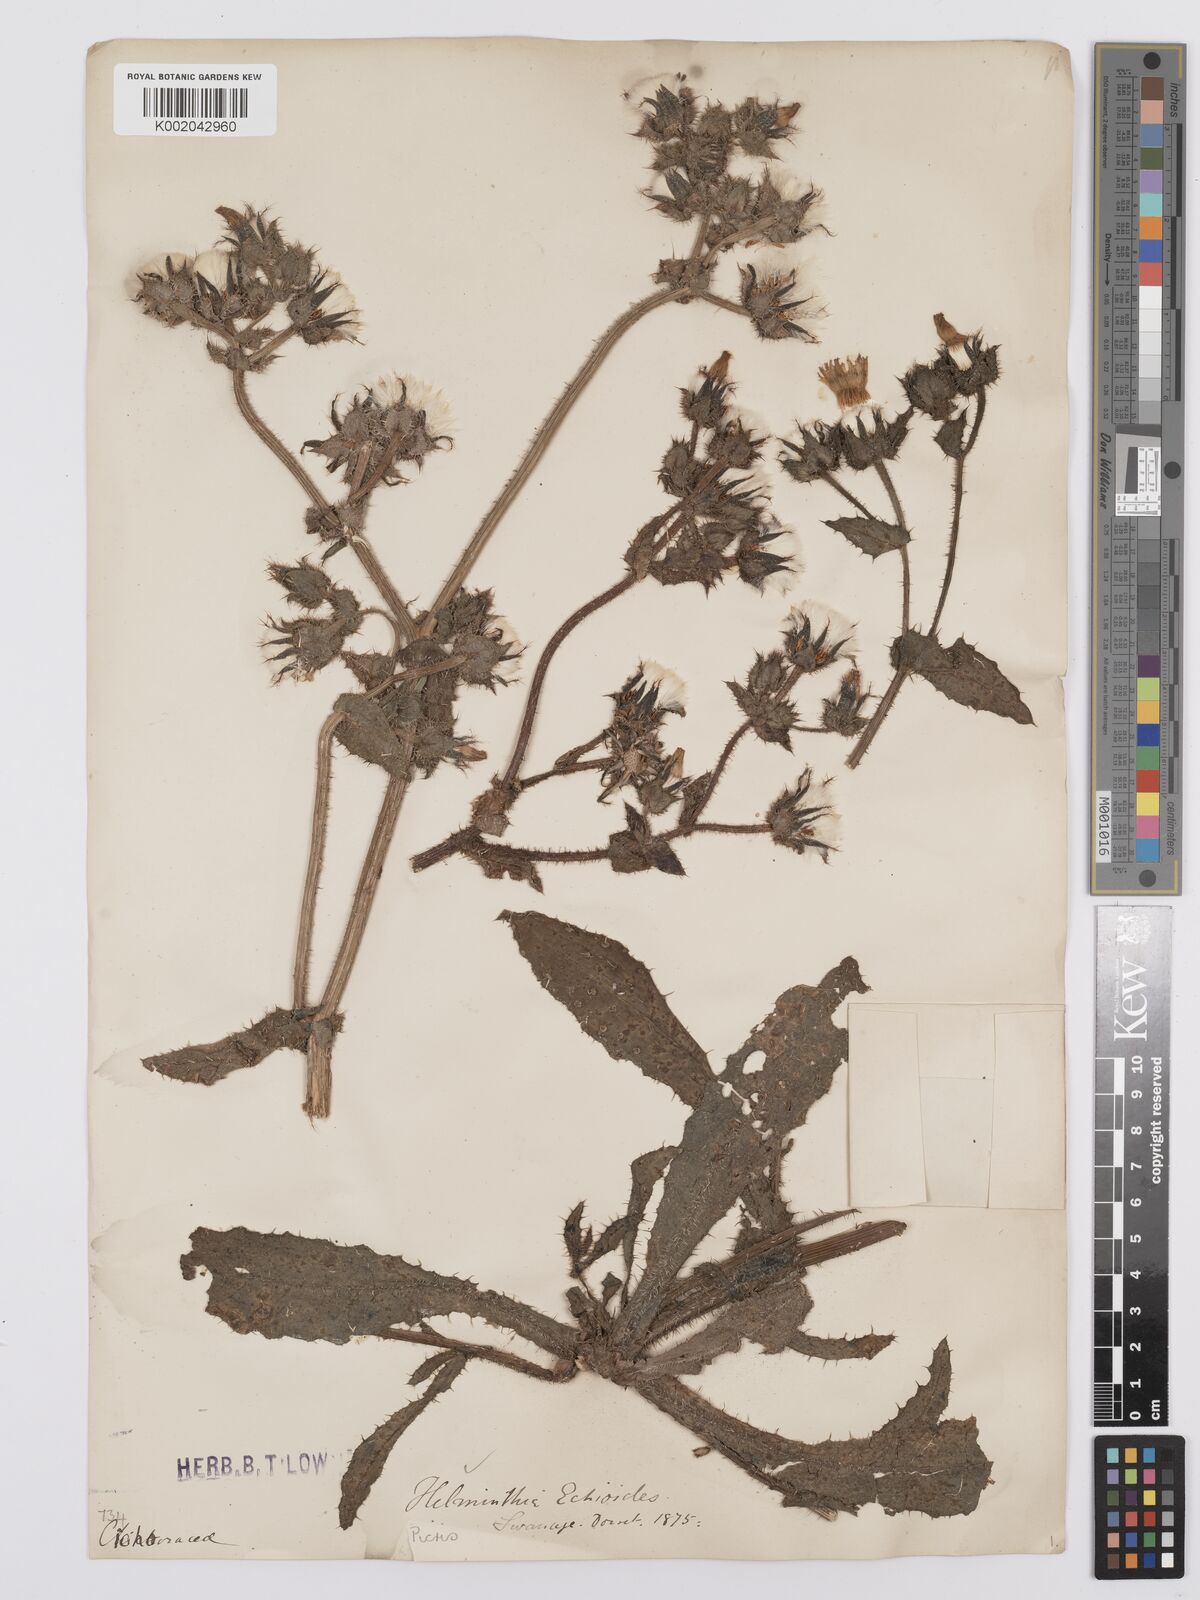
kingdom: Plantae
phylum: Tracheophyta
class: Magnoliopsida
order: Asterales
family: Asteraceae
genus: Helminthotheca
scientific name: Helminthotheca echioides
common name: Ox-tongue
